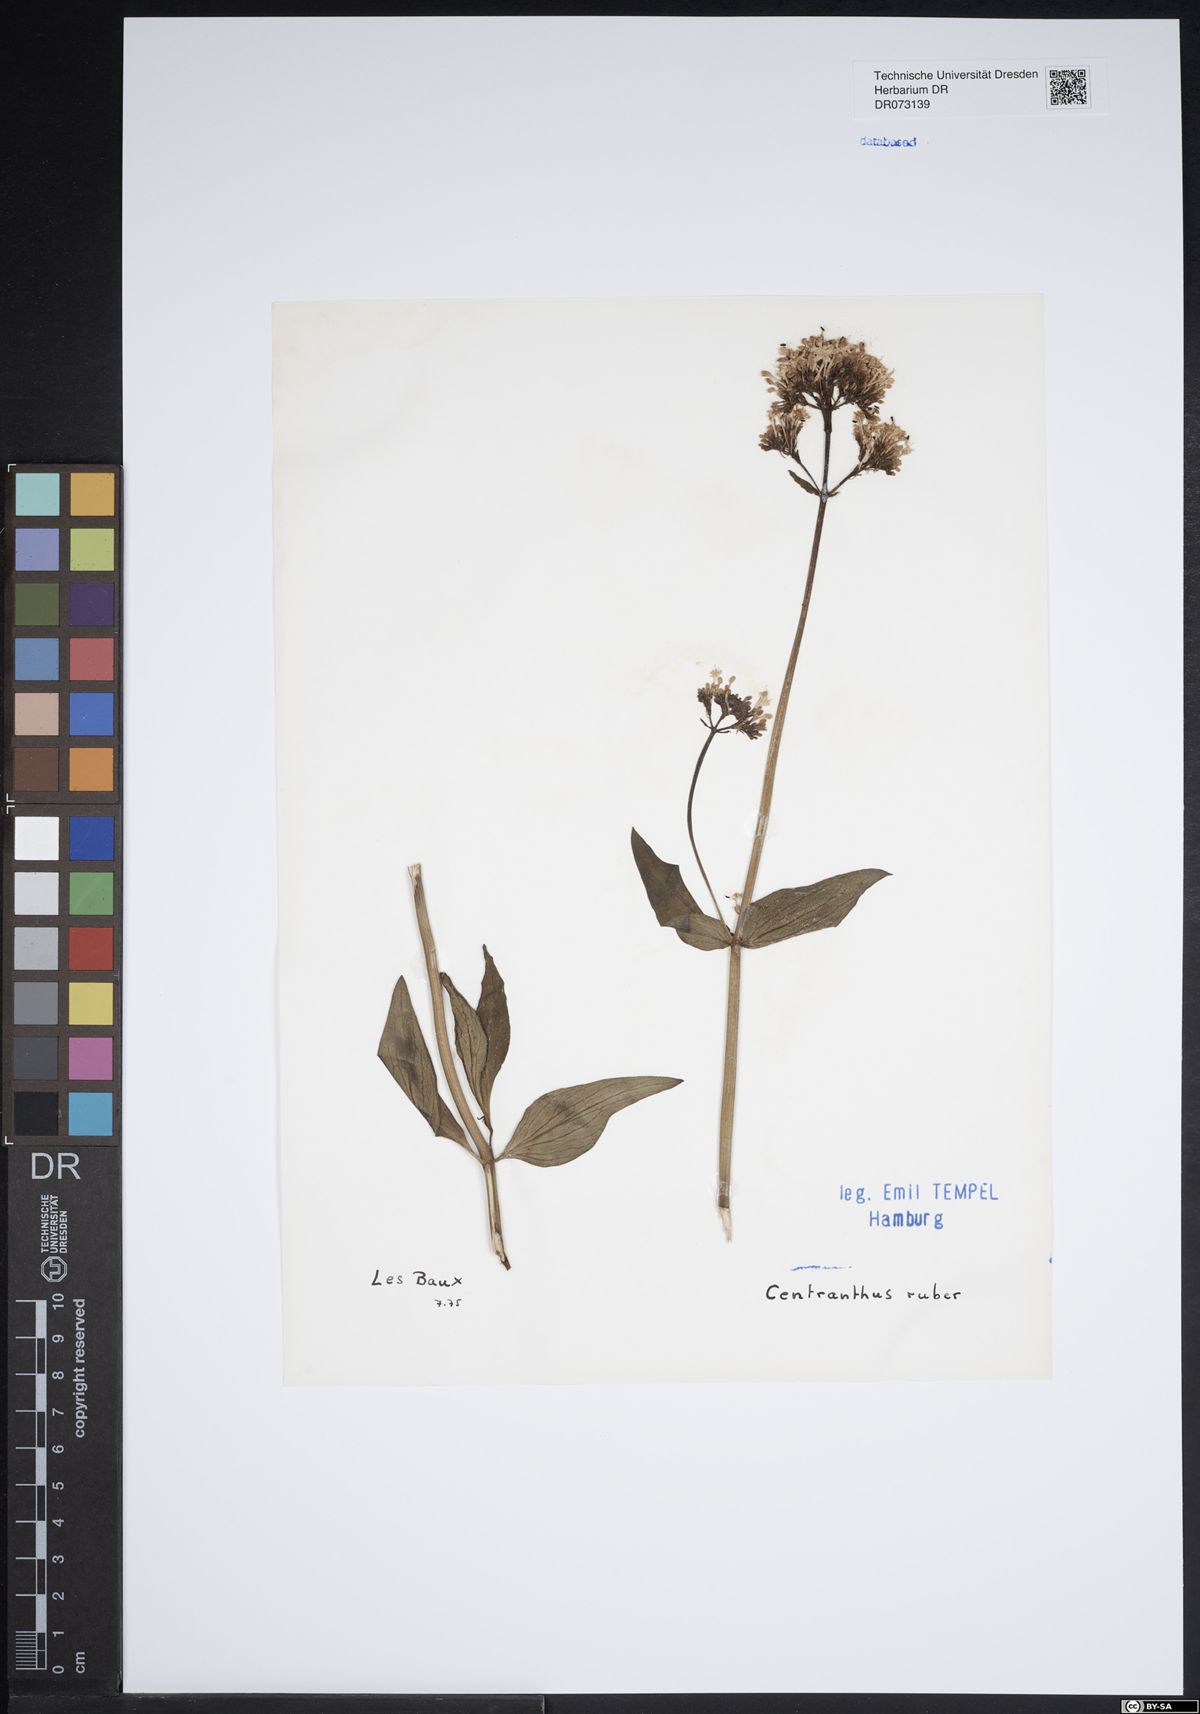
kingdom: Plantae
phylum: Tracheophyta
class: Magnoliopsida
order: Dipsacales
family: Caprifoliaceae
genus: Centranthus
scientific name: Centranthus ruber
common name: Red valerian
